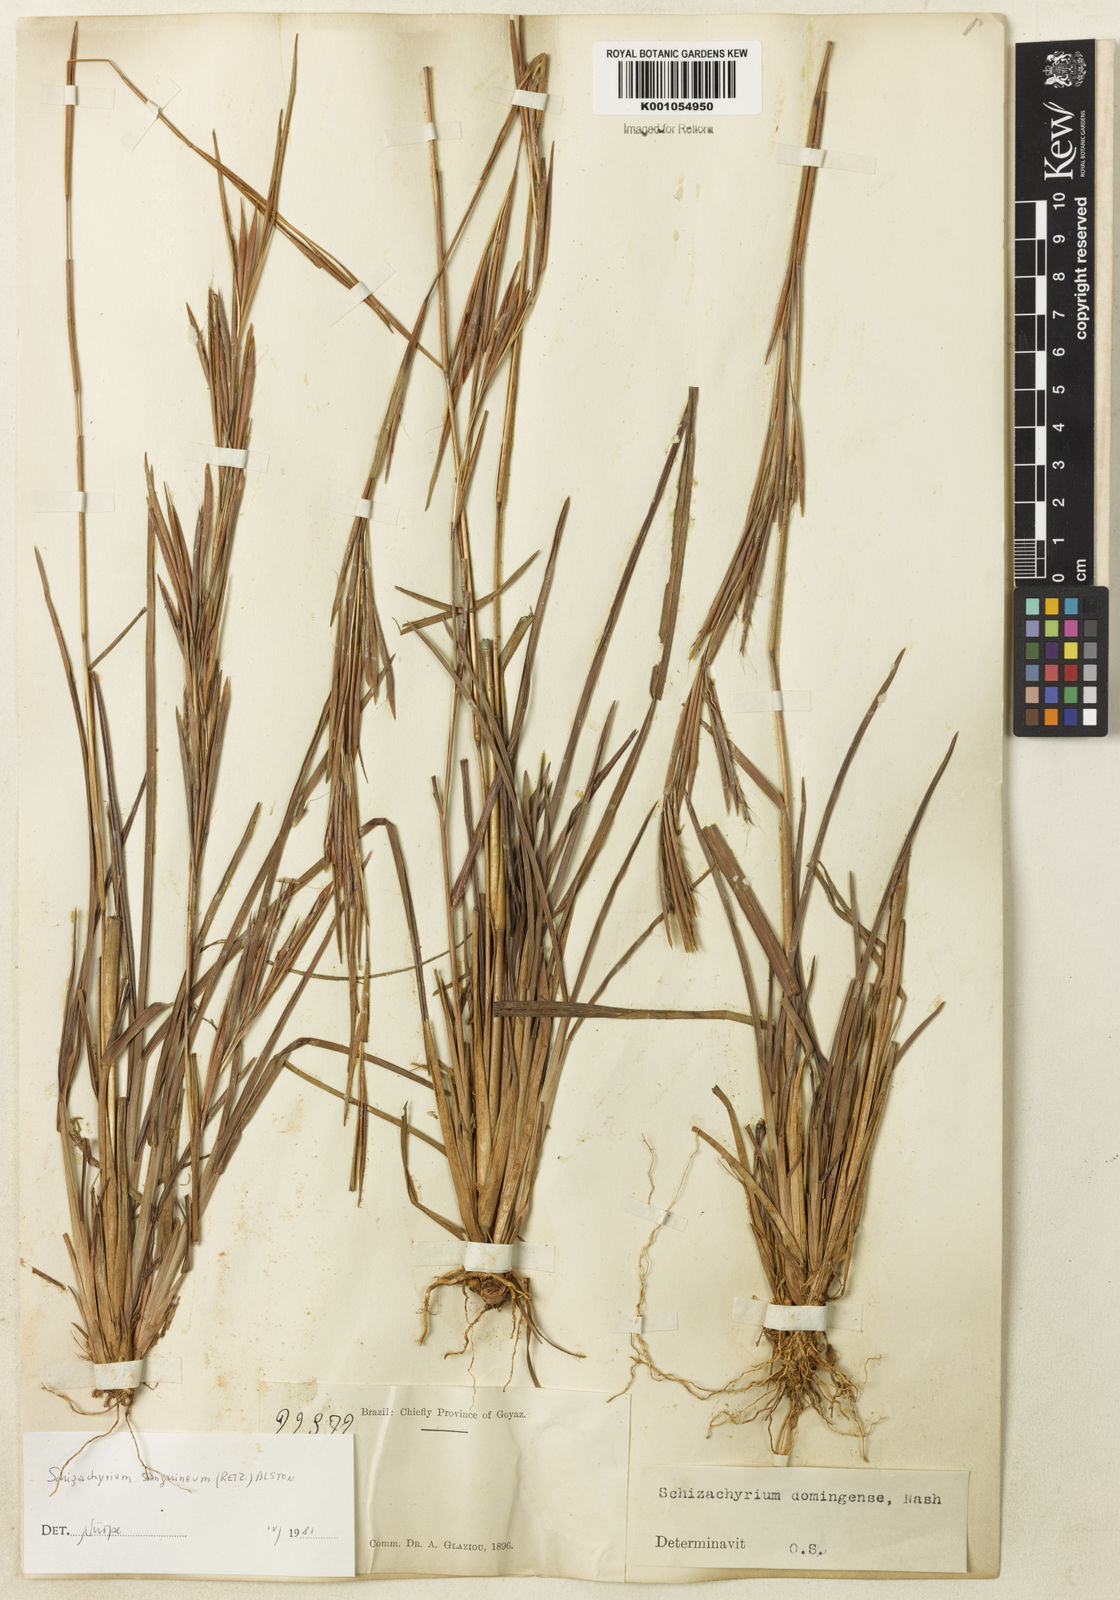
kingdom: Plantae
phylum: Tracheophyta
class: Liliopsida
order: Poales
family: Poaceae
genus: Schizachyrium
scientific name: Schizachyrium sanguineum
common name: Crimson bluestem
